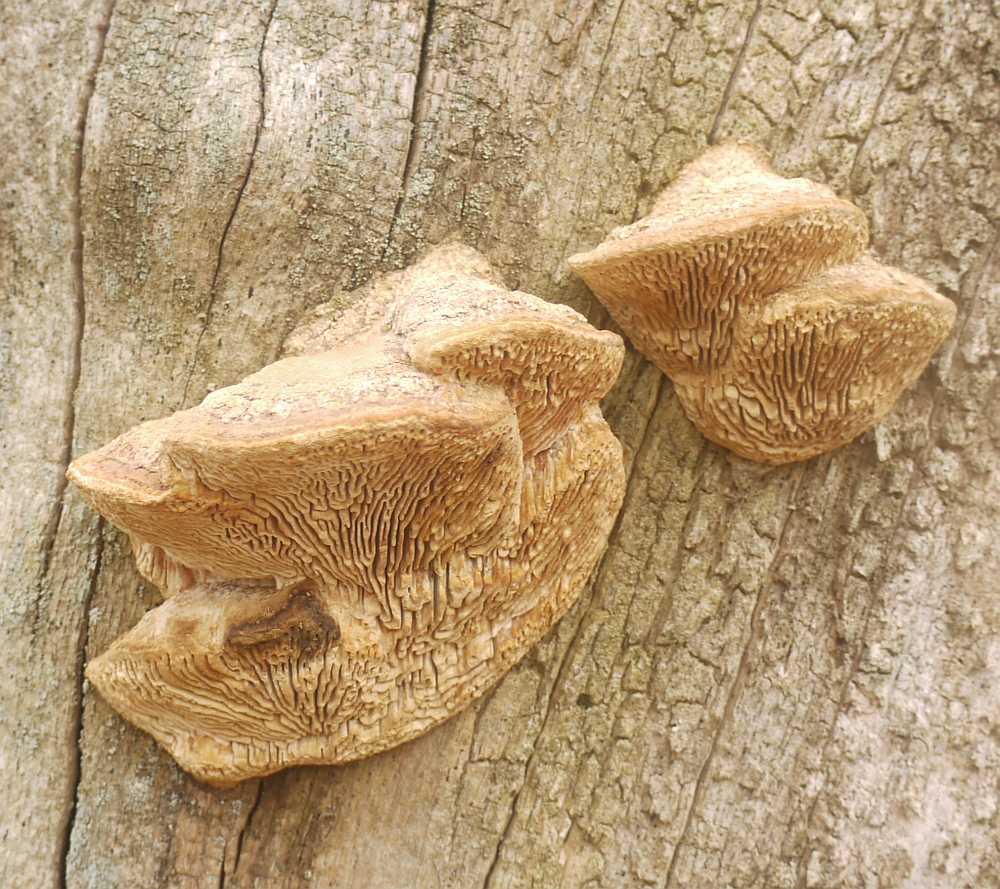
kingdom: Fungi
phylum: Basidiomycota
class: Agaricomycetes
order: Polyporales
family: Fomitopsidaceae
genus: Daedalea
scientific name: Daedalea quercina
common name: ege-labyrintsvamp
